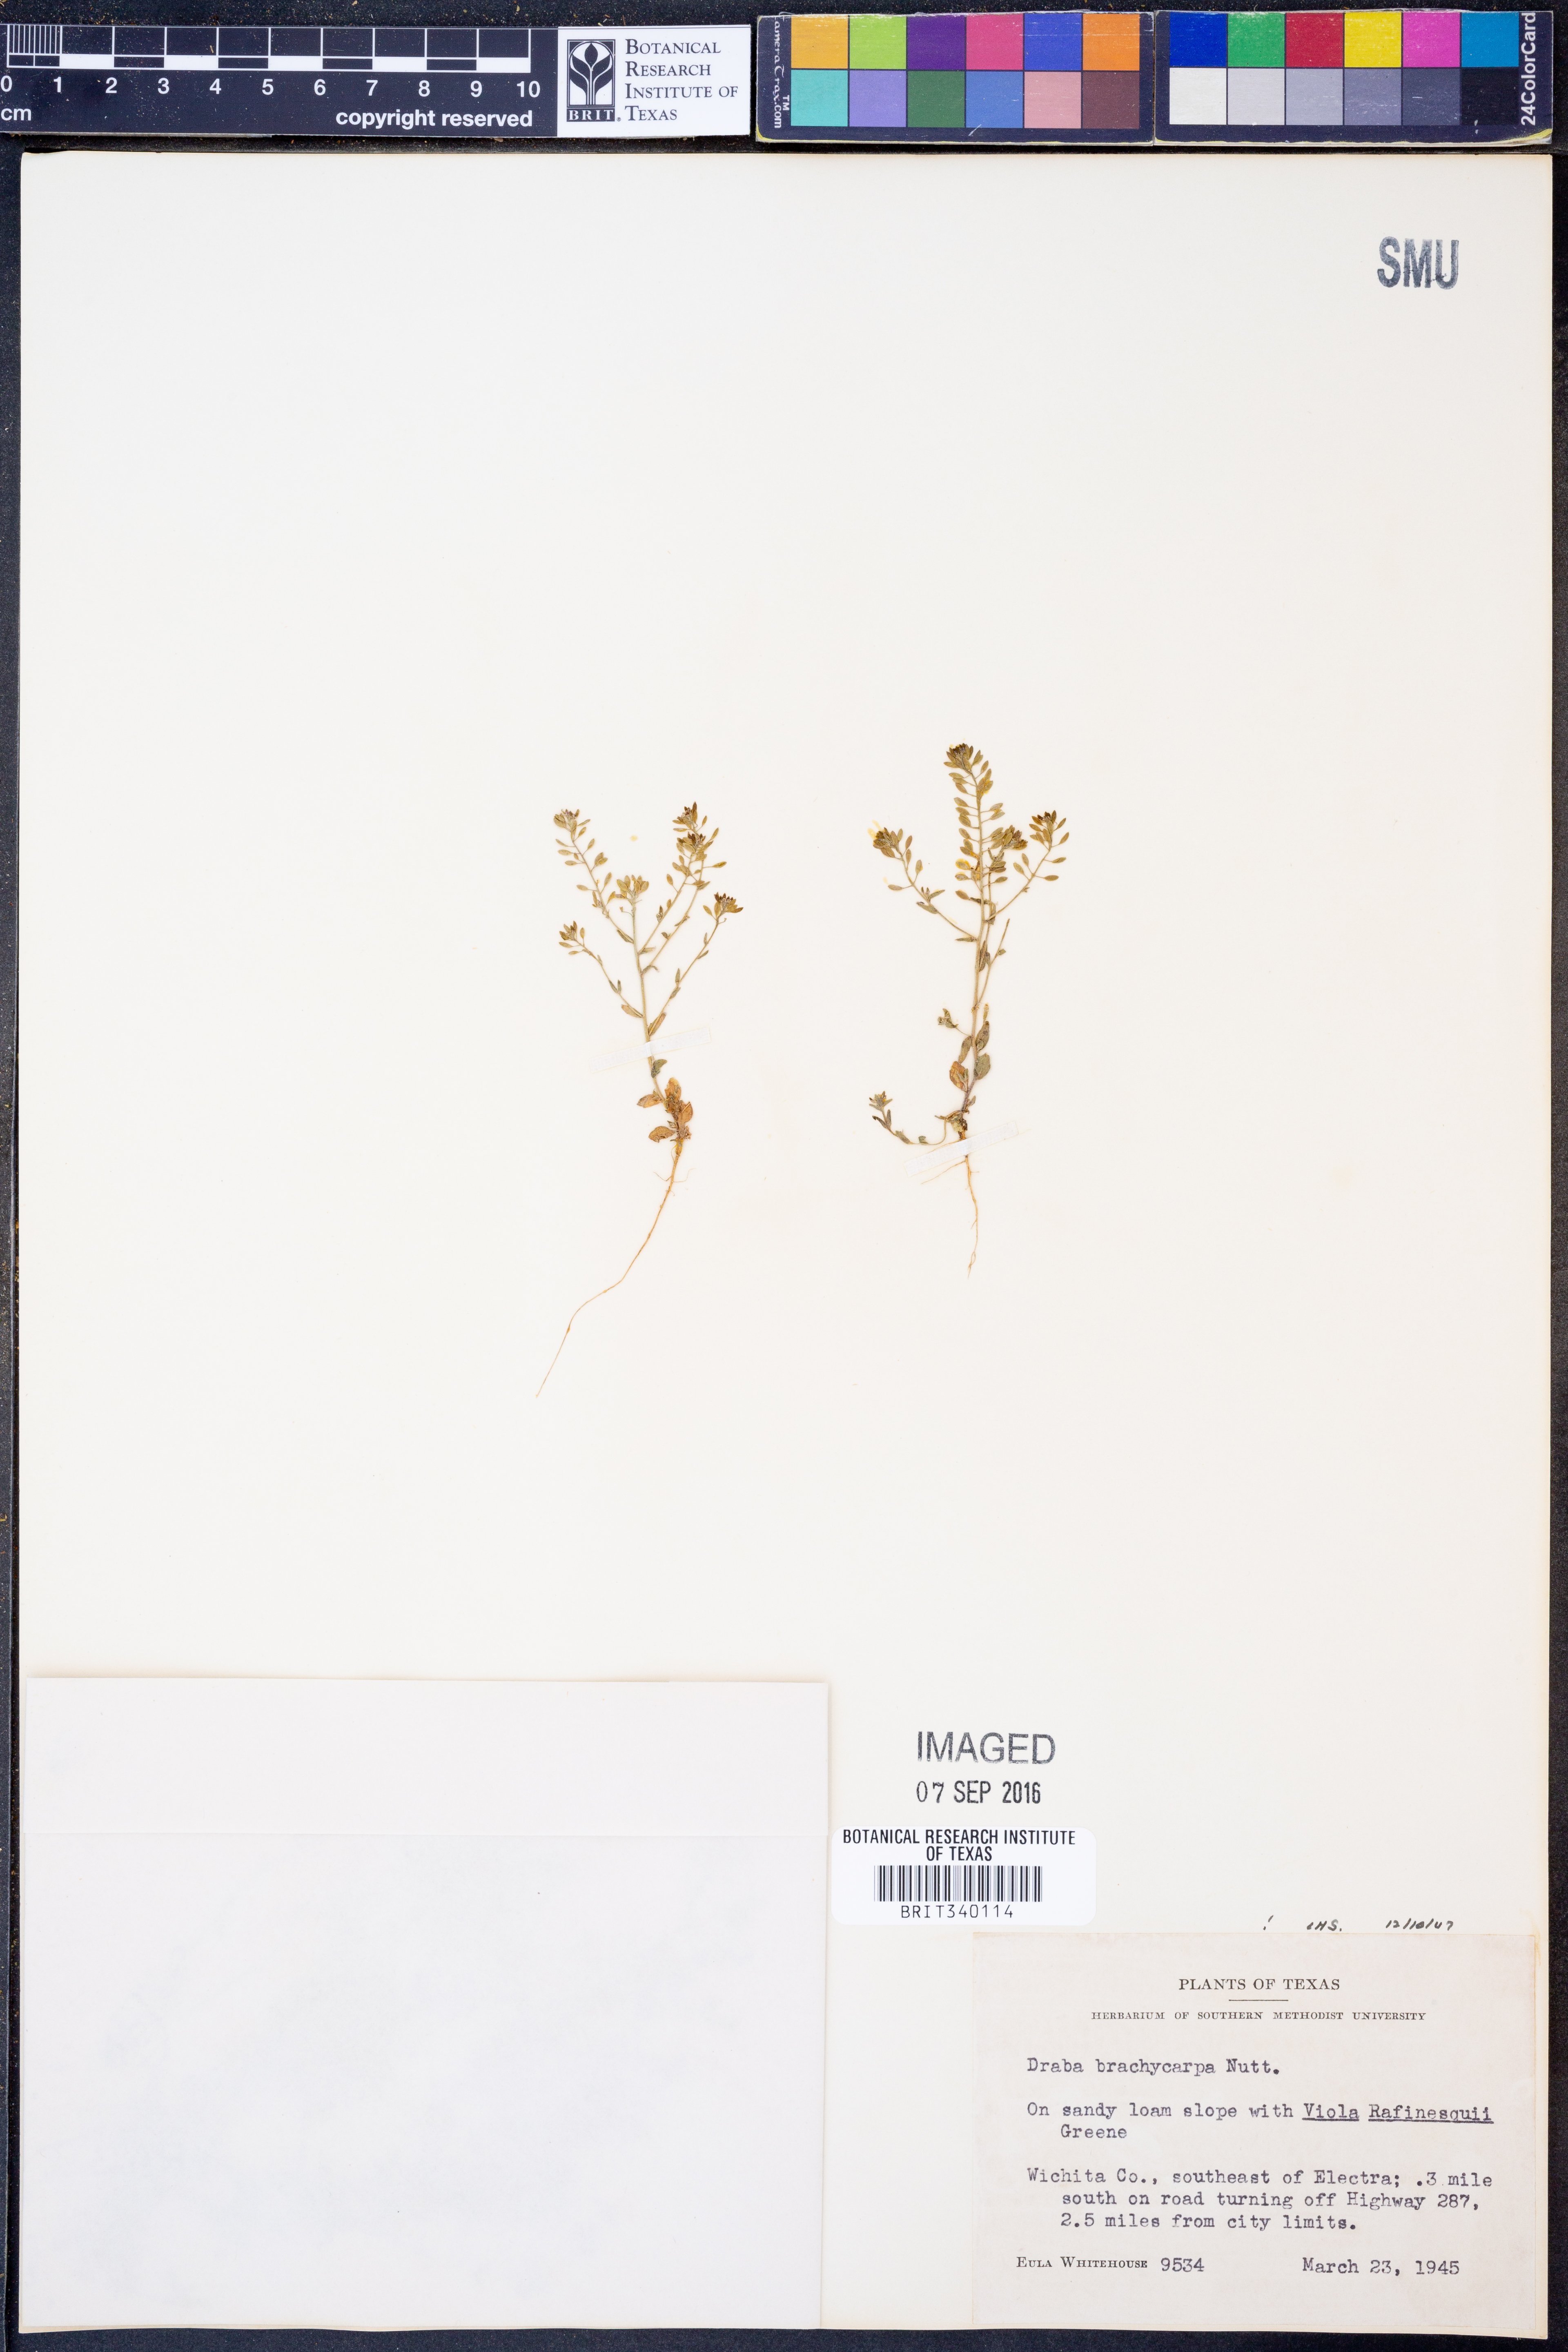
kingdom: Plantae
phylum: Tracheophyta
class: Magnoliopsida
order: Brassicales
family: Brassicaceae
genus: Abdra
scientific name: Abdra brachycarpa
